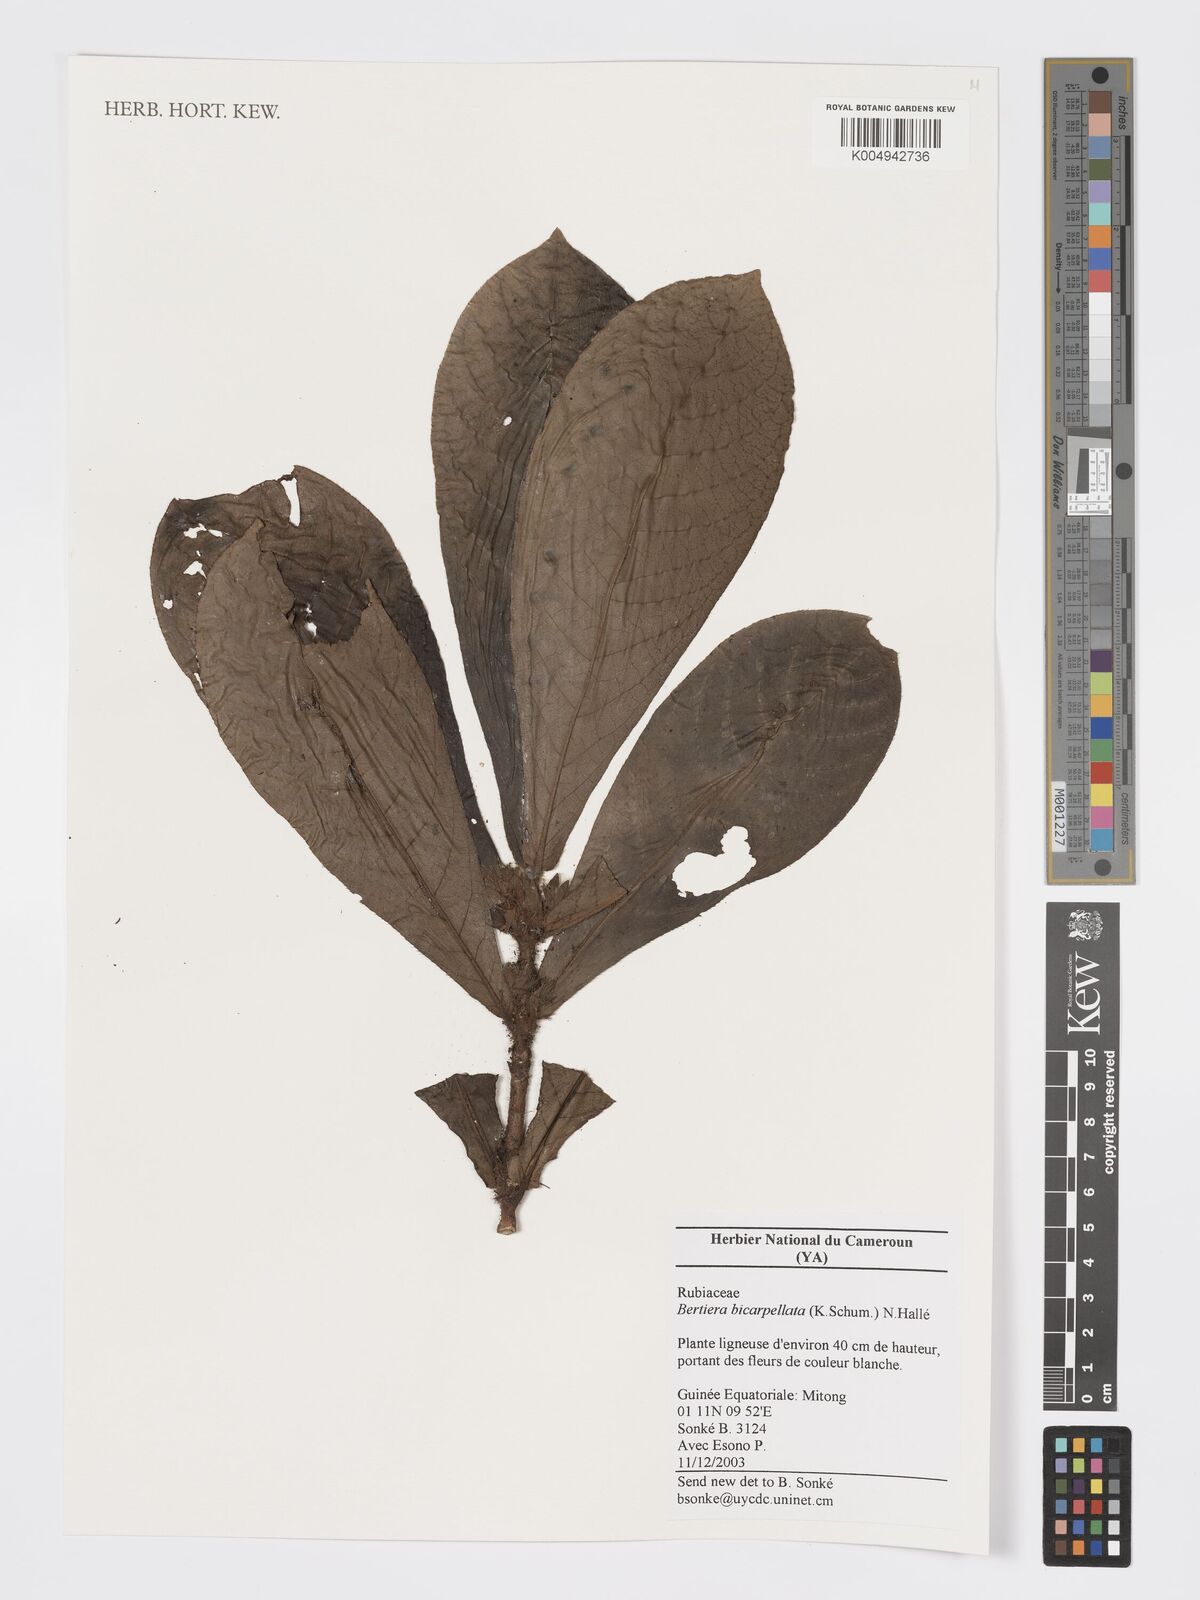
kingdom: Plantae
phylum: Tracheophyta
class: Magnoliopsida
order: Gentianales
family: Rubiaceae
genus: Bertiera
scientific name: Bertiera bicarpellata
